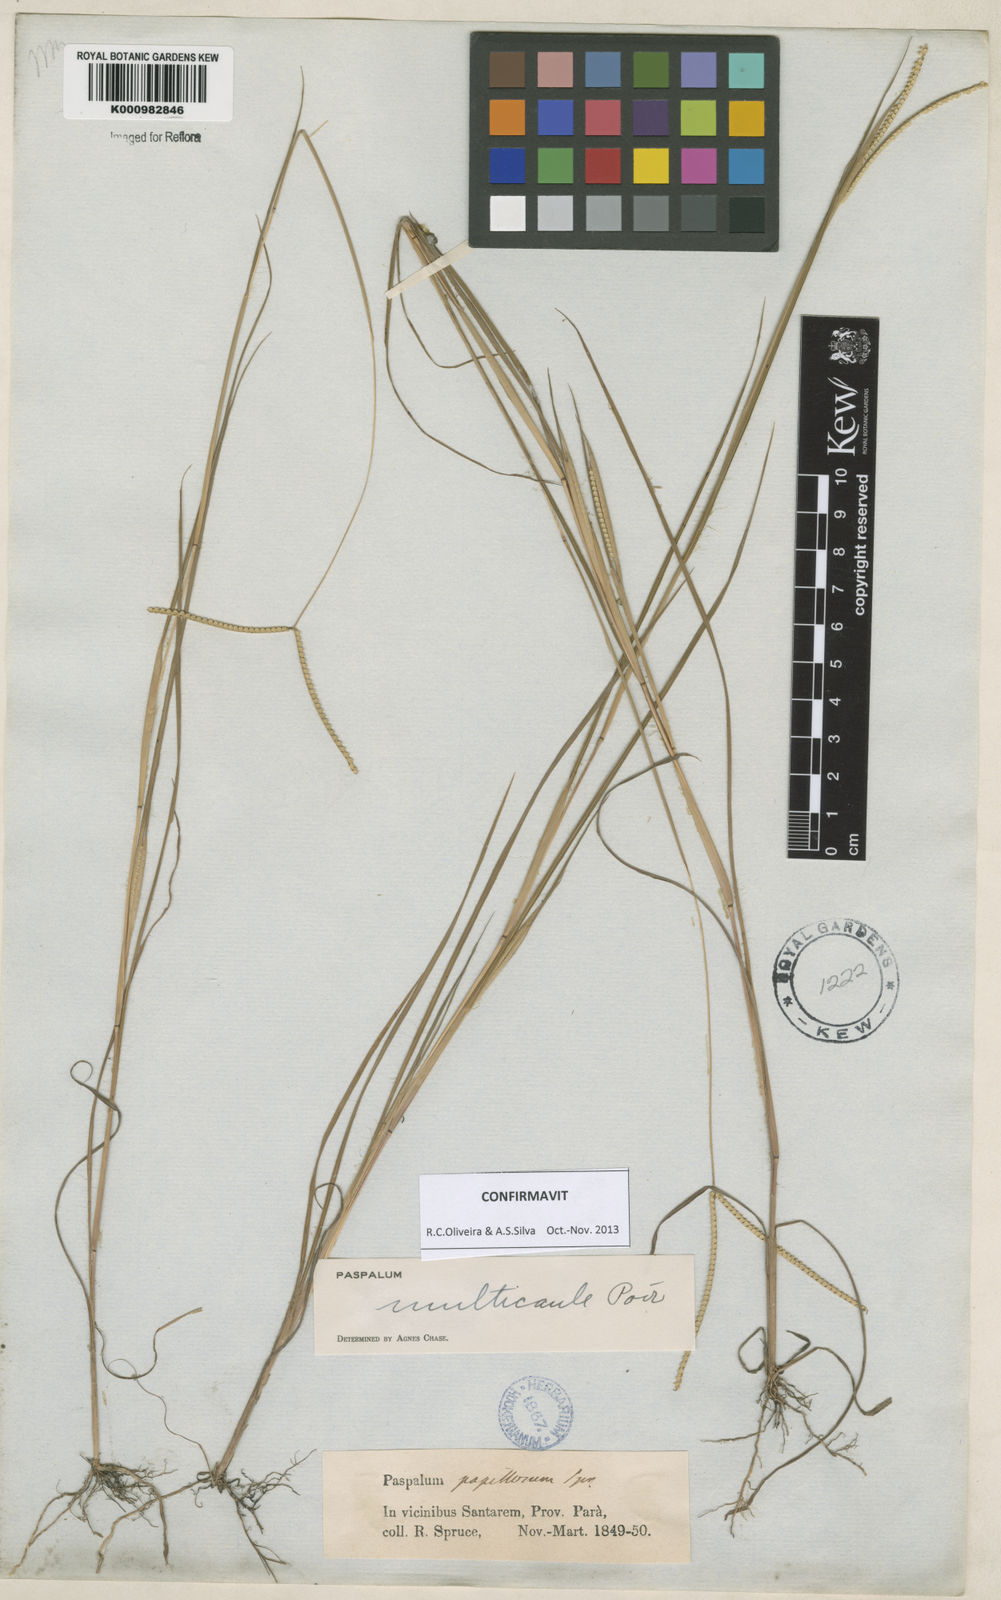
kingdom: Plantae
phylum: Tracheophyta
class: Liliopsida
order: Poales
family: Poaceae
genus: Paspalum
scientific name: Paspalum multicaule
